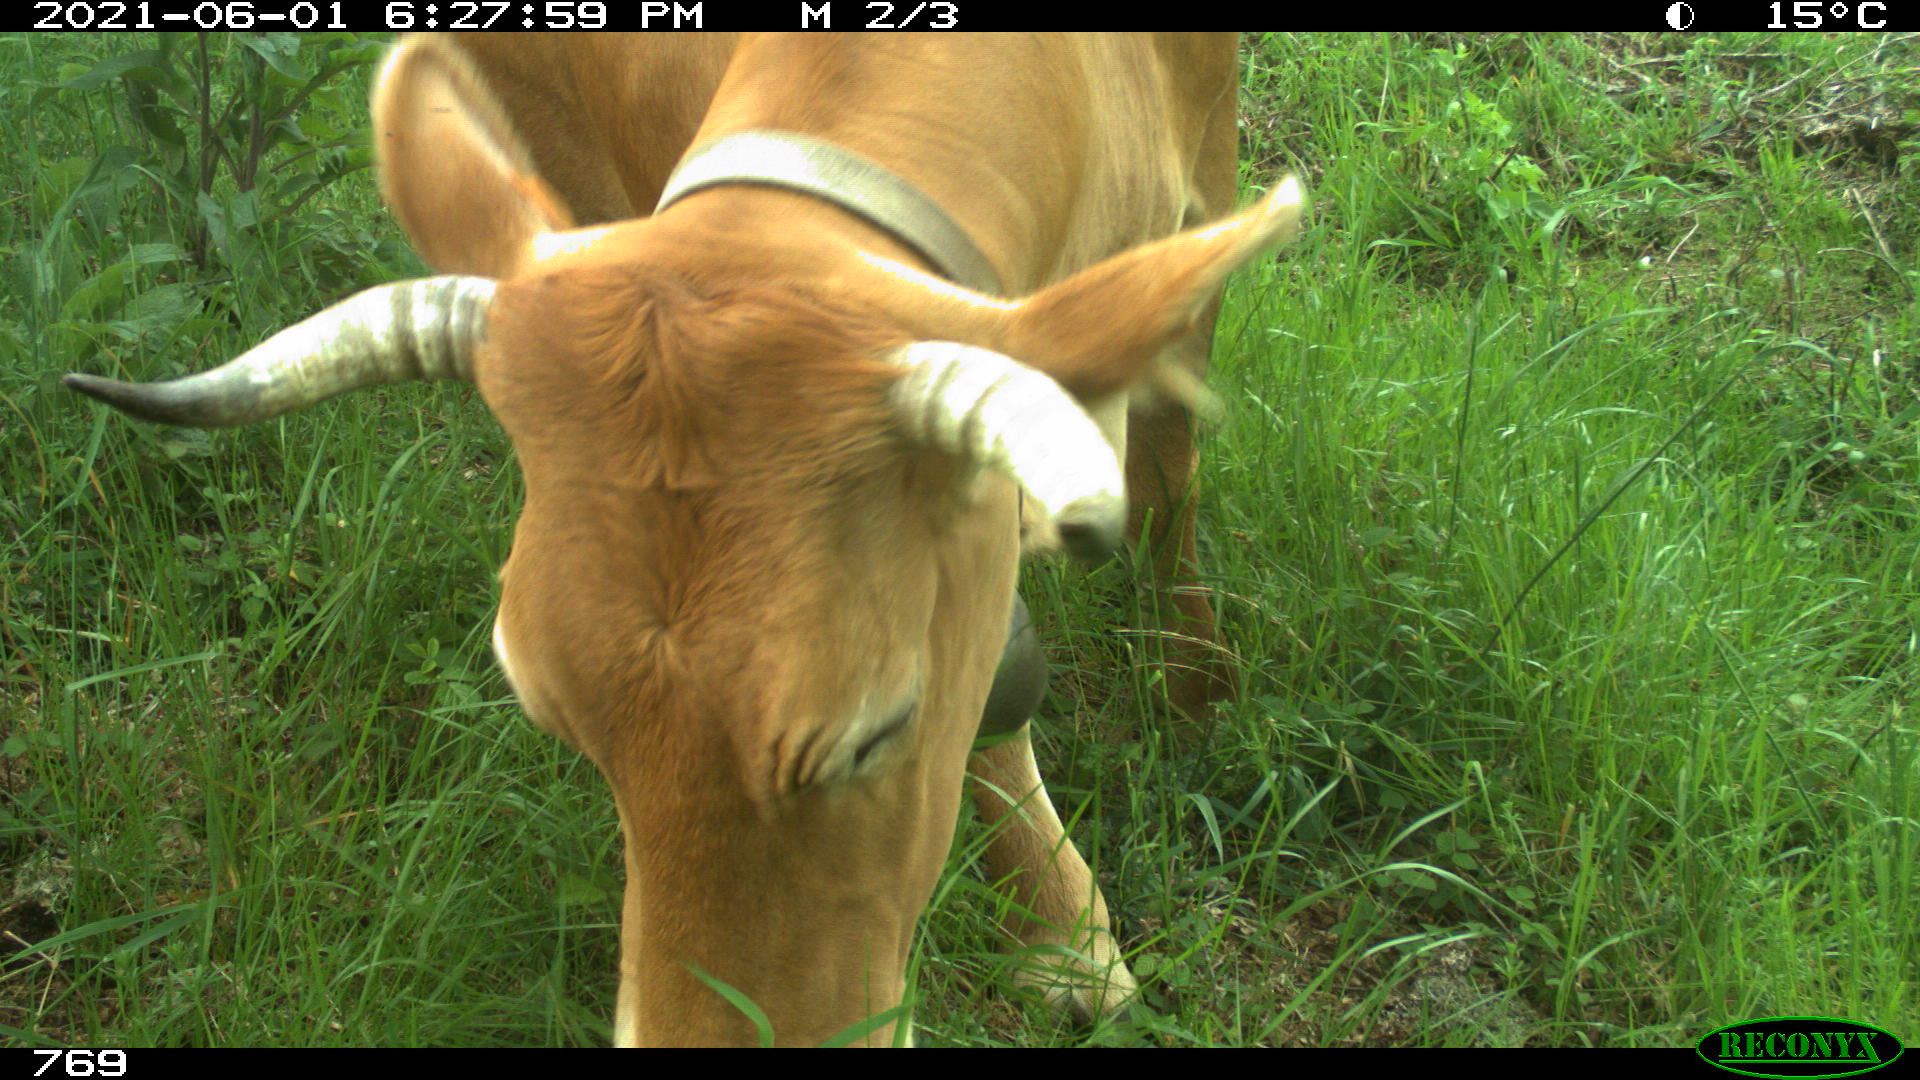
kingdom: Animalia
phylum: Chordata
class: Mammalia
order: Artiodactyla
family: Bovidae
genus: Bos
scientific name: Bos taurus
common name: Domesticated cattle
